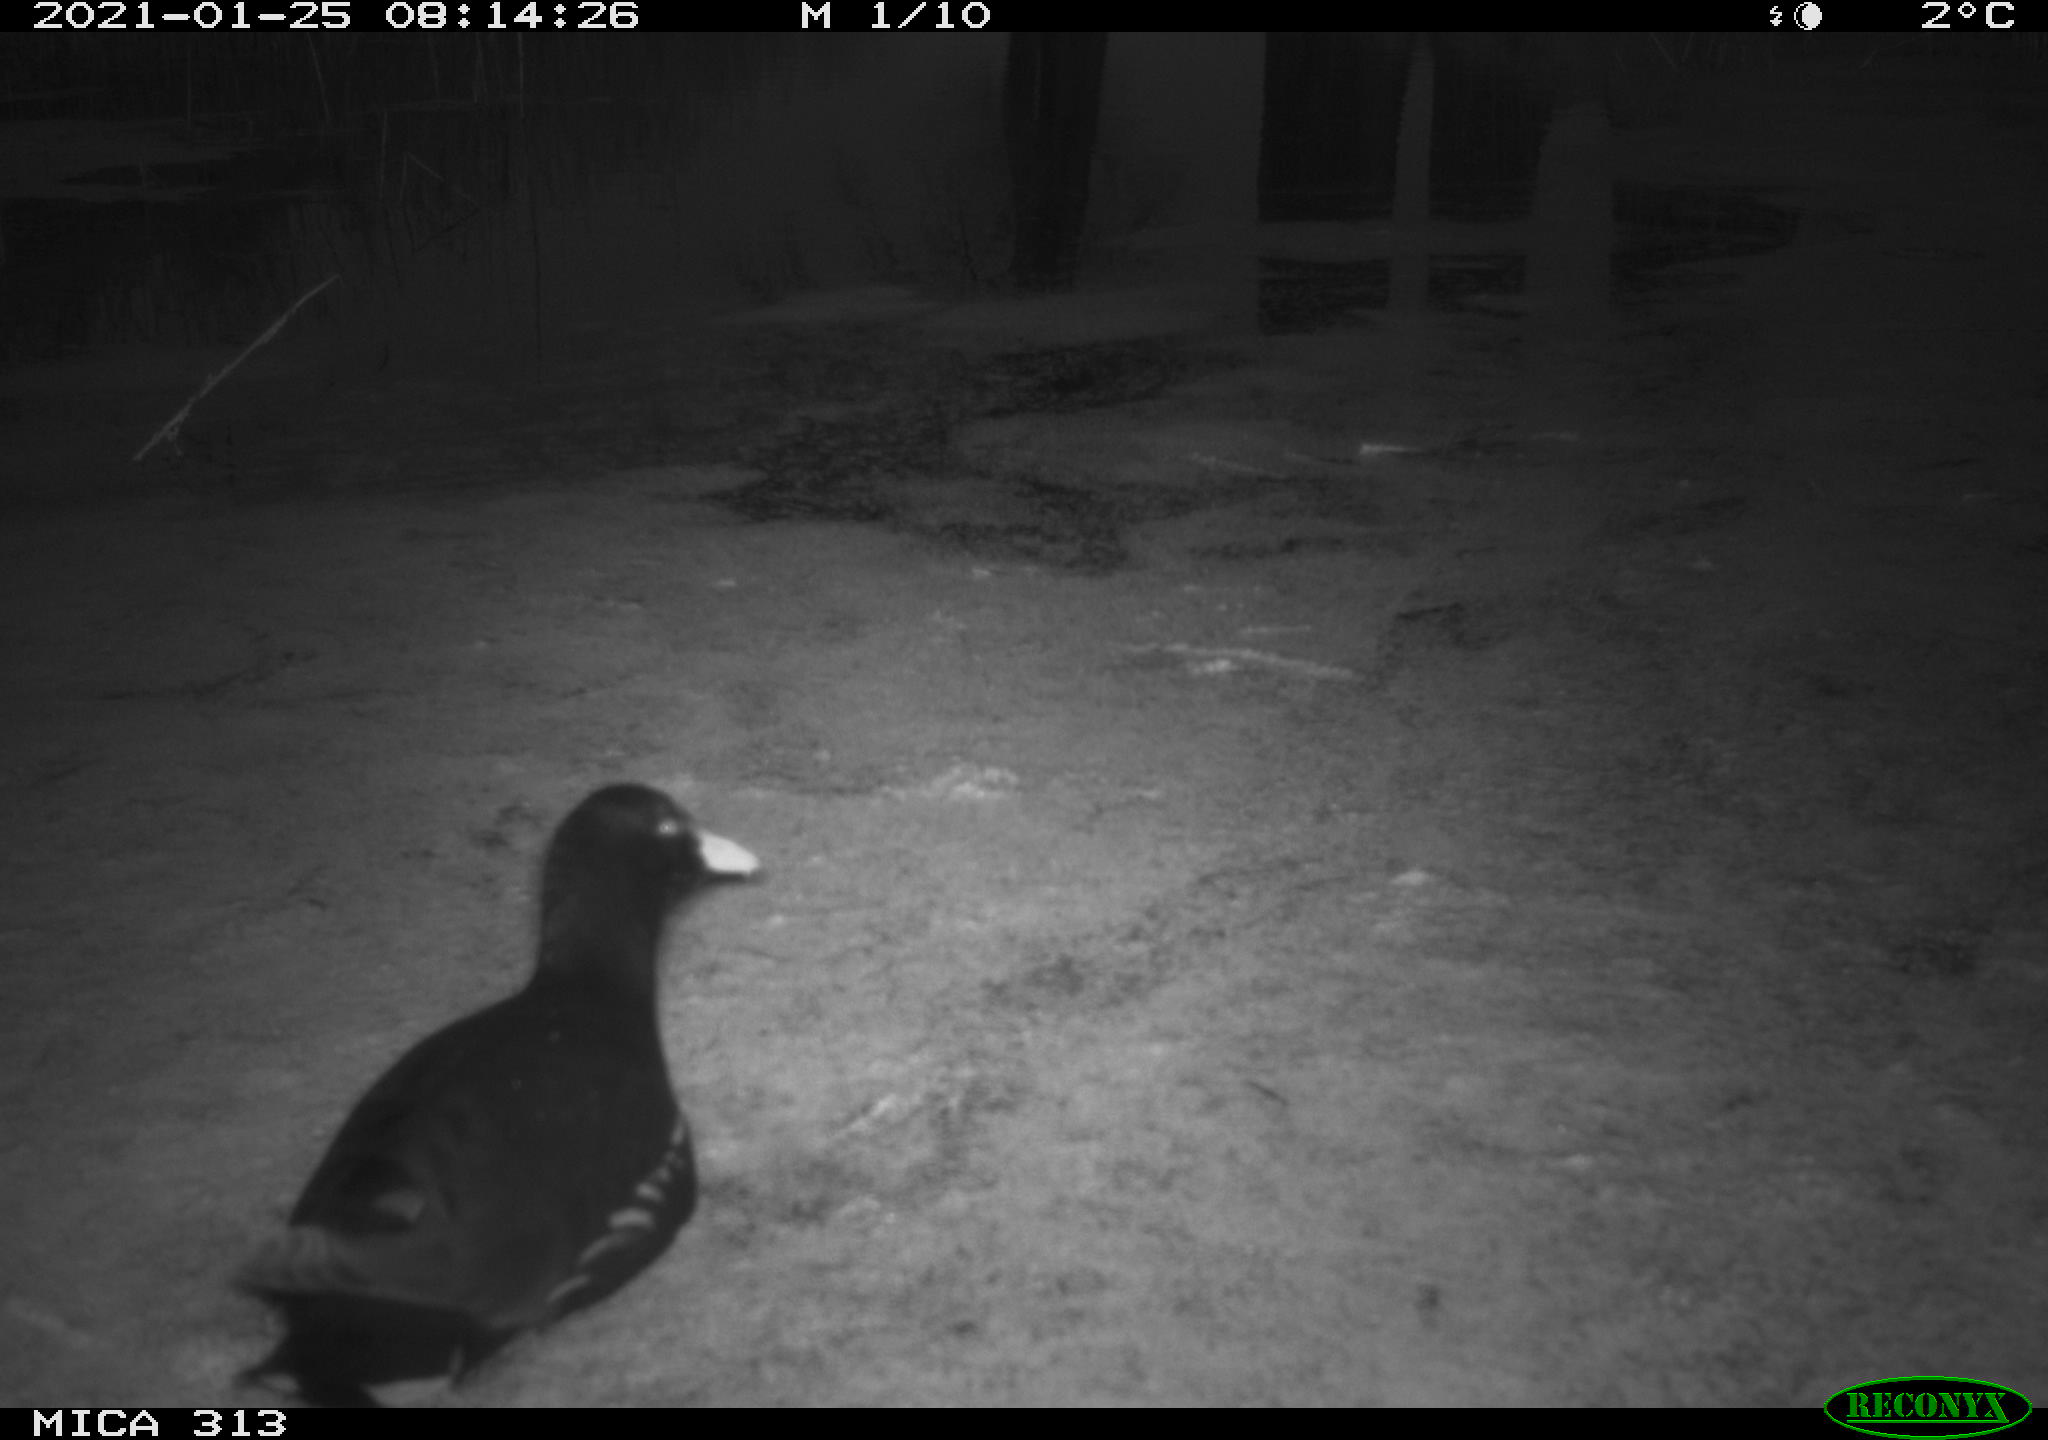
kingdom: Animalia
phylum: Chordata
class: Aves
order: Gruiformes
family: Rallidae
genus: Fulica
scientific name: Fulica atra
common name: Eurasian coot
